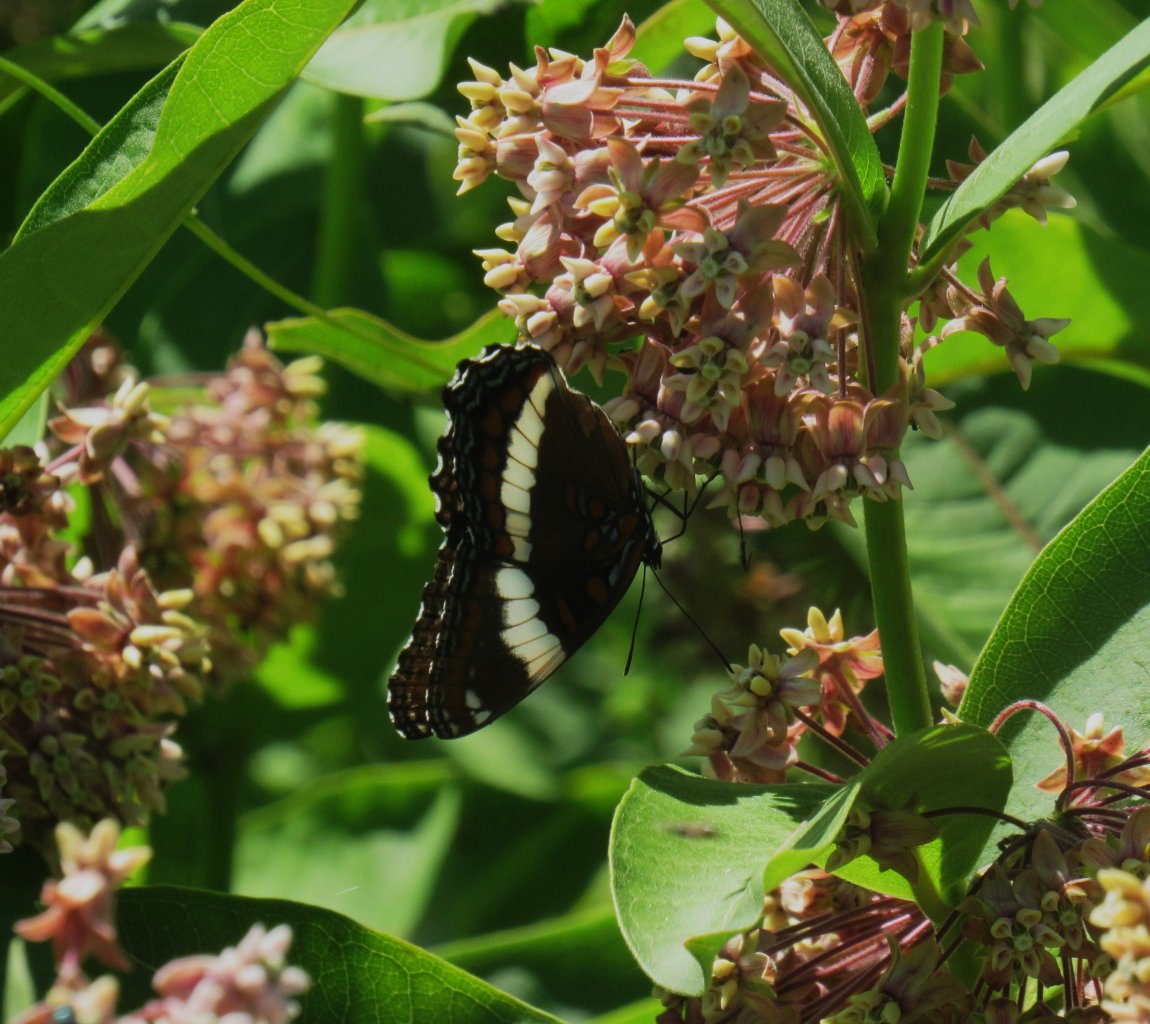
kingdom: Animalia
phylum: Arthropoda
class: Insecta
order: Lepidoptera
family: Nymphalidae
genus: Limenitis
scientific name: Limenitis arthemis
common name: Red-spotted Admiral
